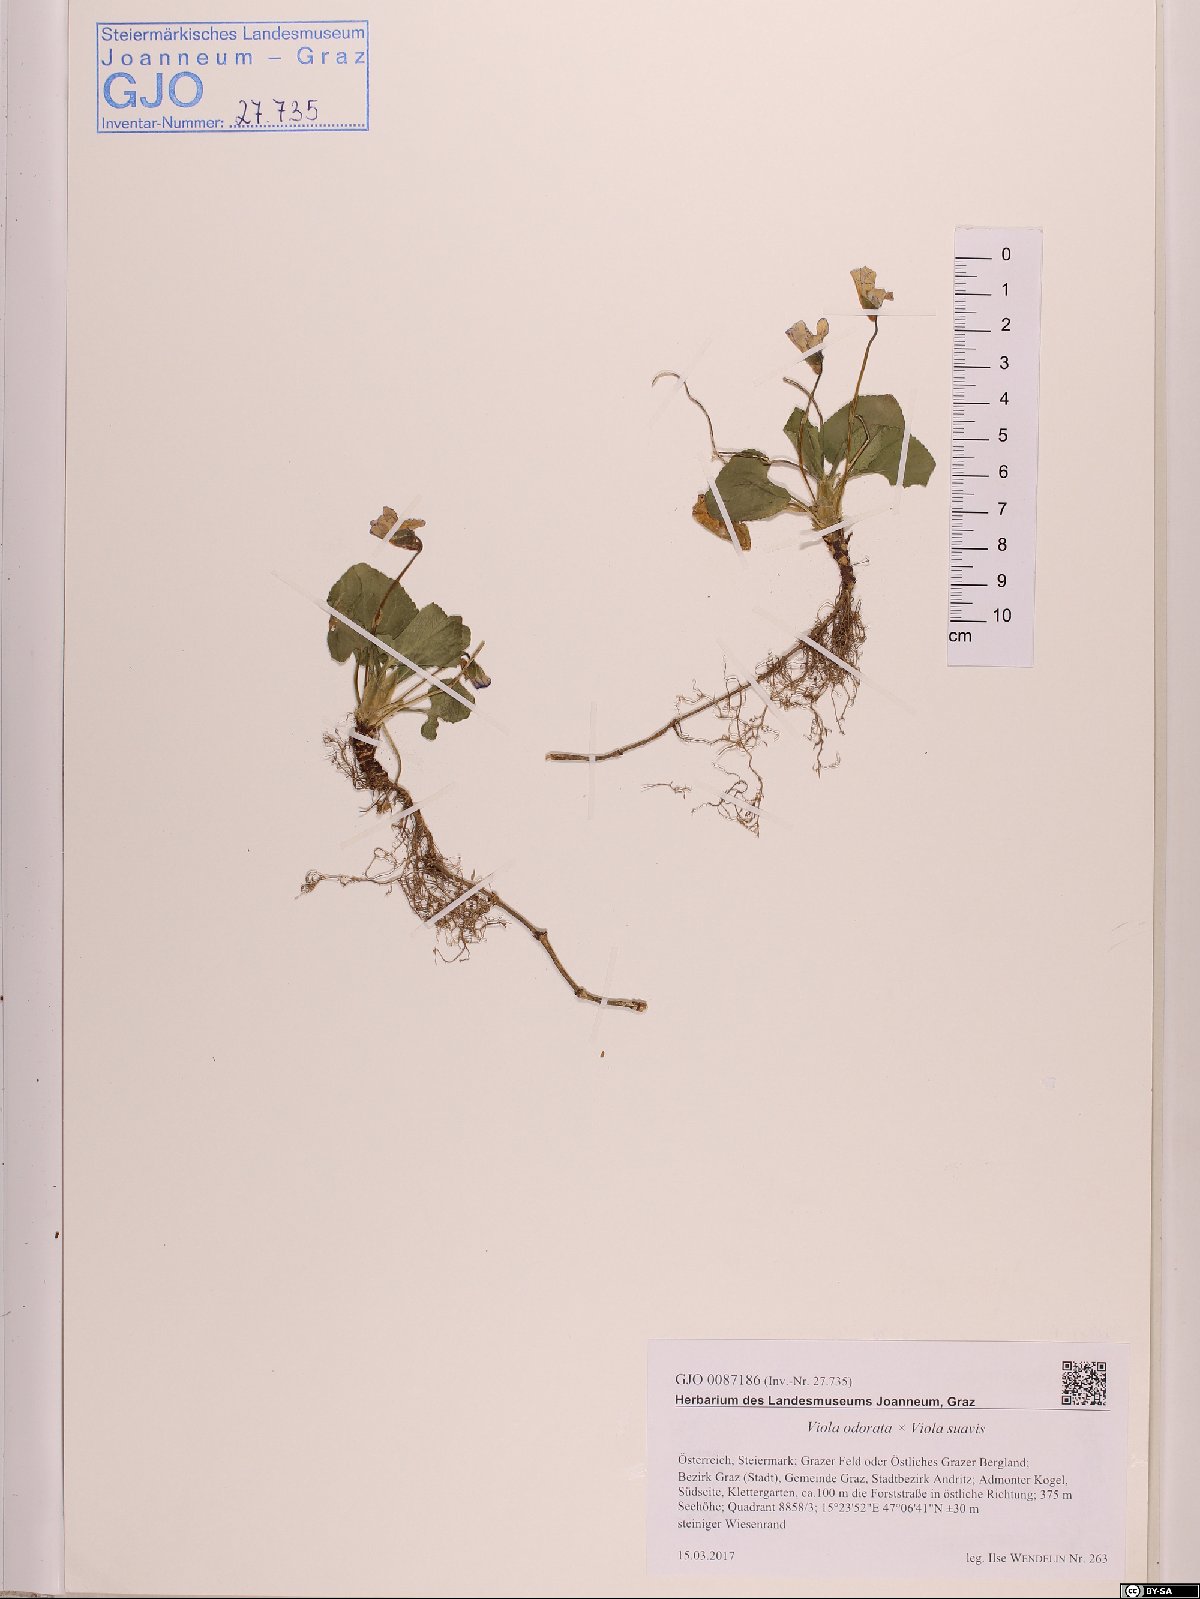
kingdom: Plantae
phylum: Tracheophyta
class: Magnoliopsida
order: Malpighiales
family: Violaceae
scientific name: Violaceae
